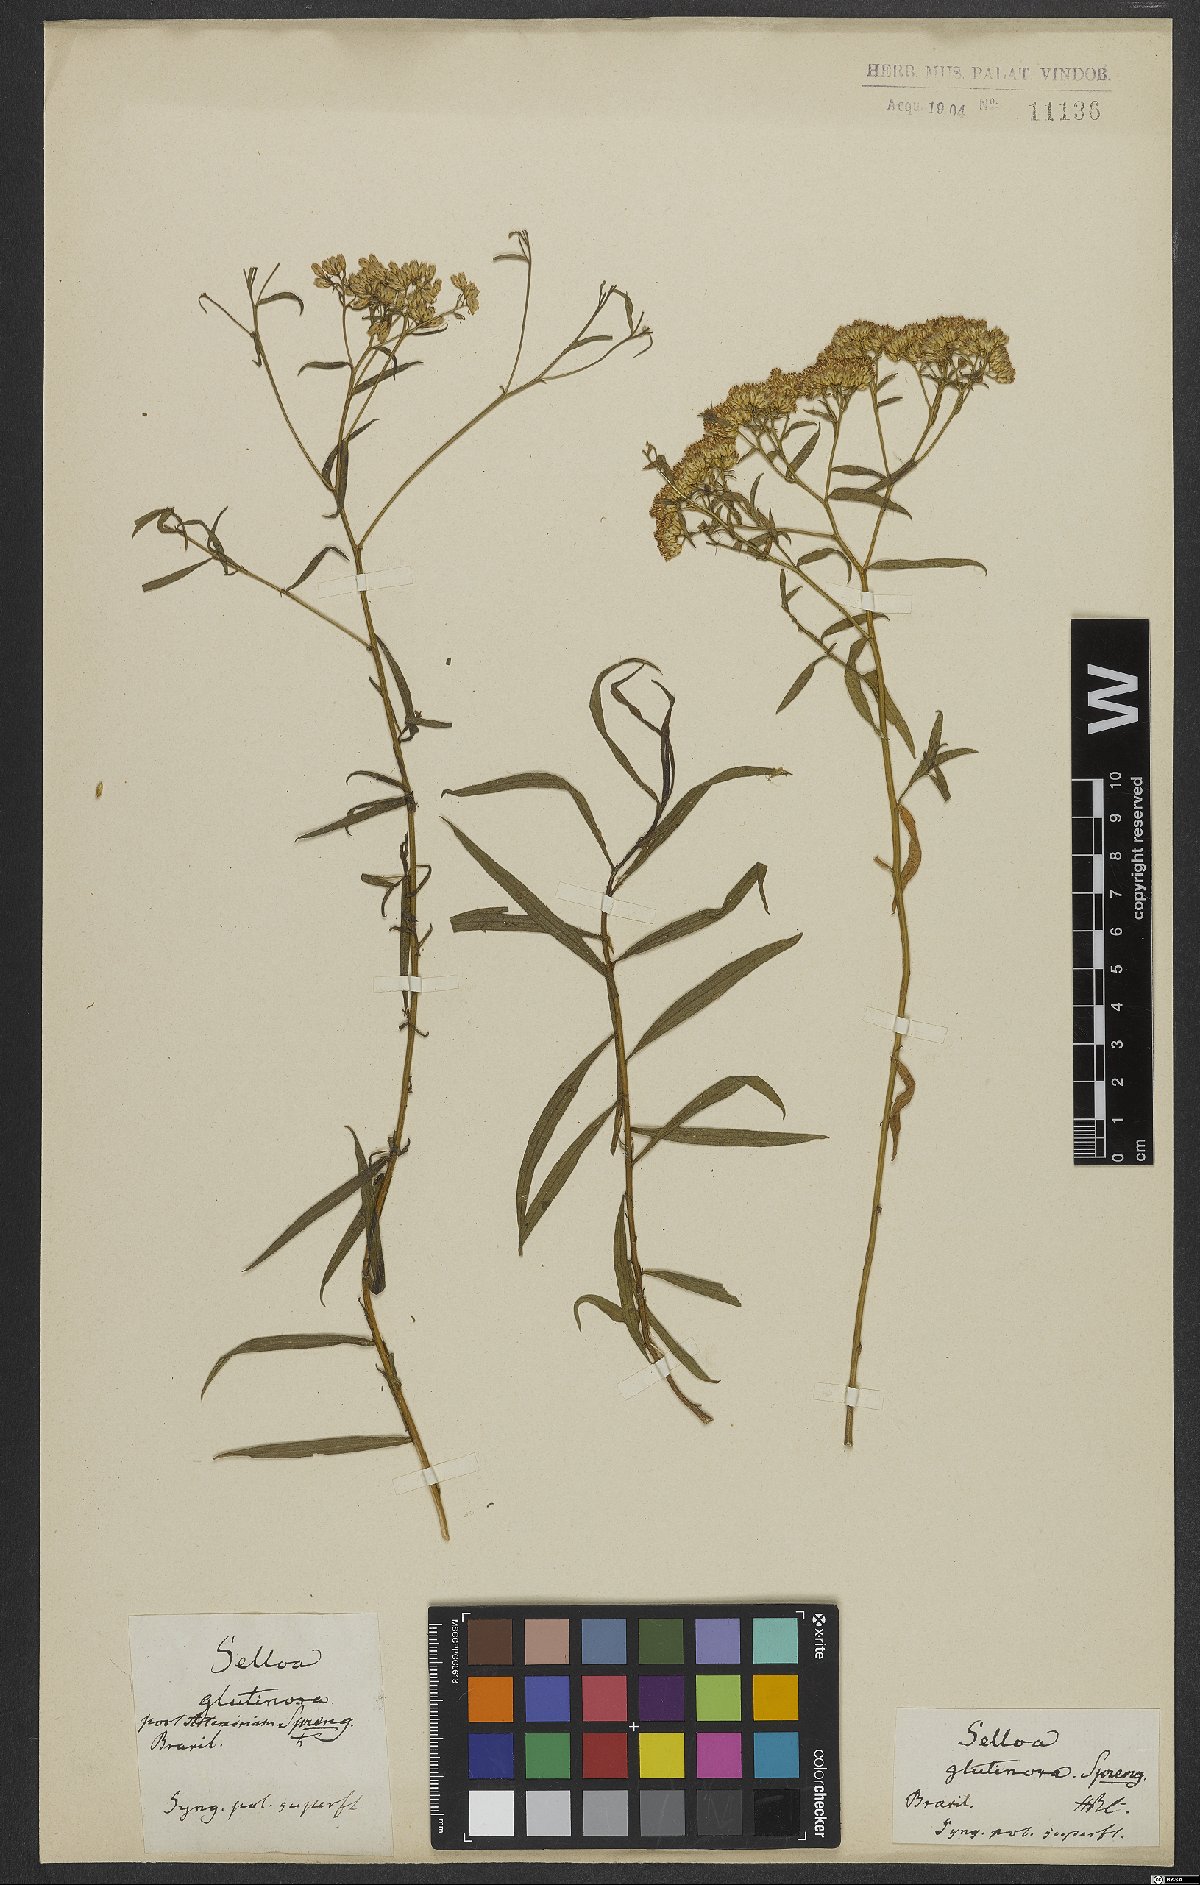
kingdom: Plantae
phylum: Tracheophyta
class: Magnoliopsida
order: Asterales
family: Asteraceae
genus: Gymnosperma
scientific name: Gymnosperma glutinosum
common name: Gumhead
